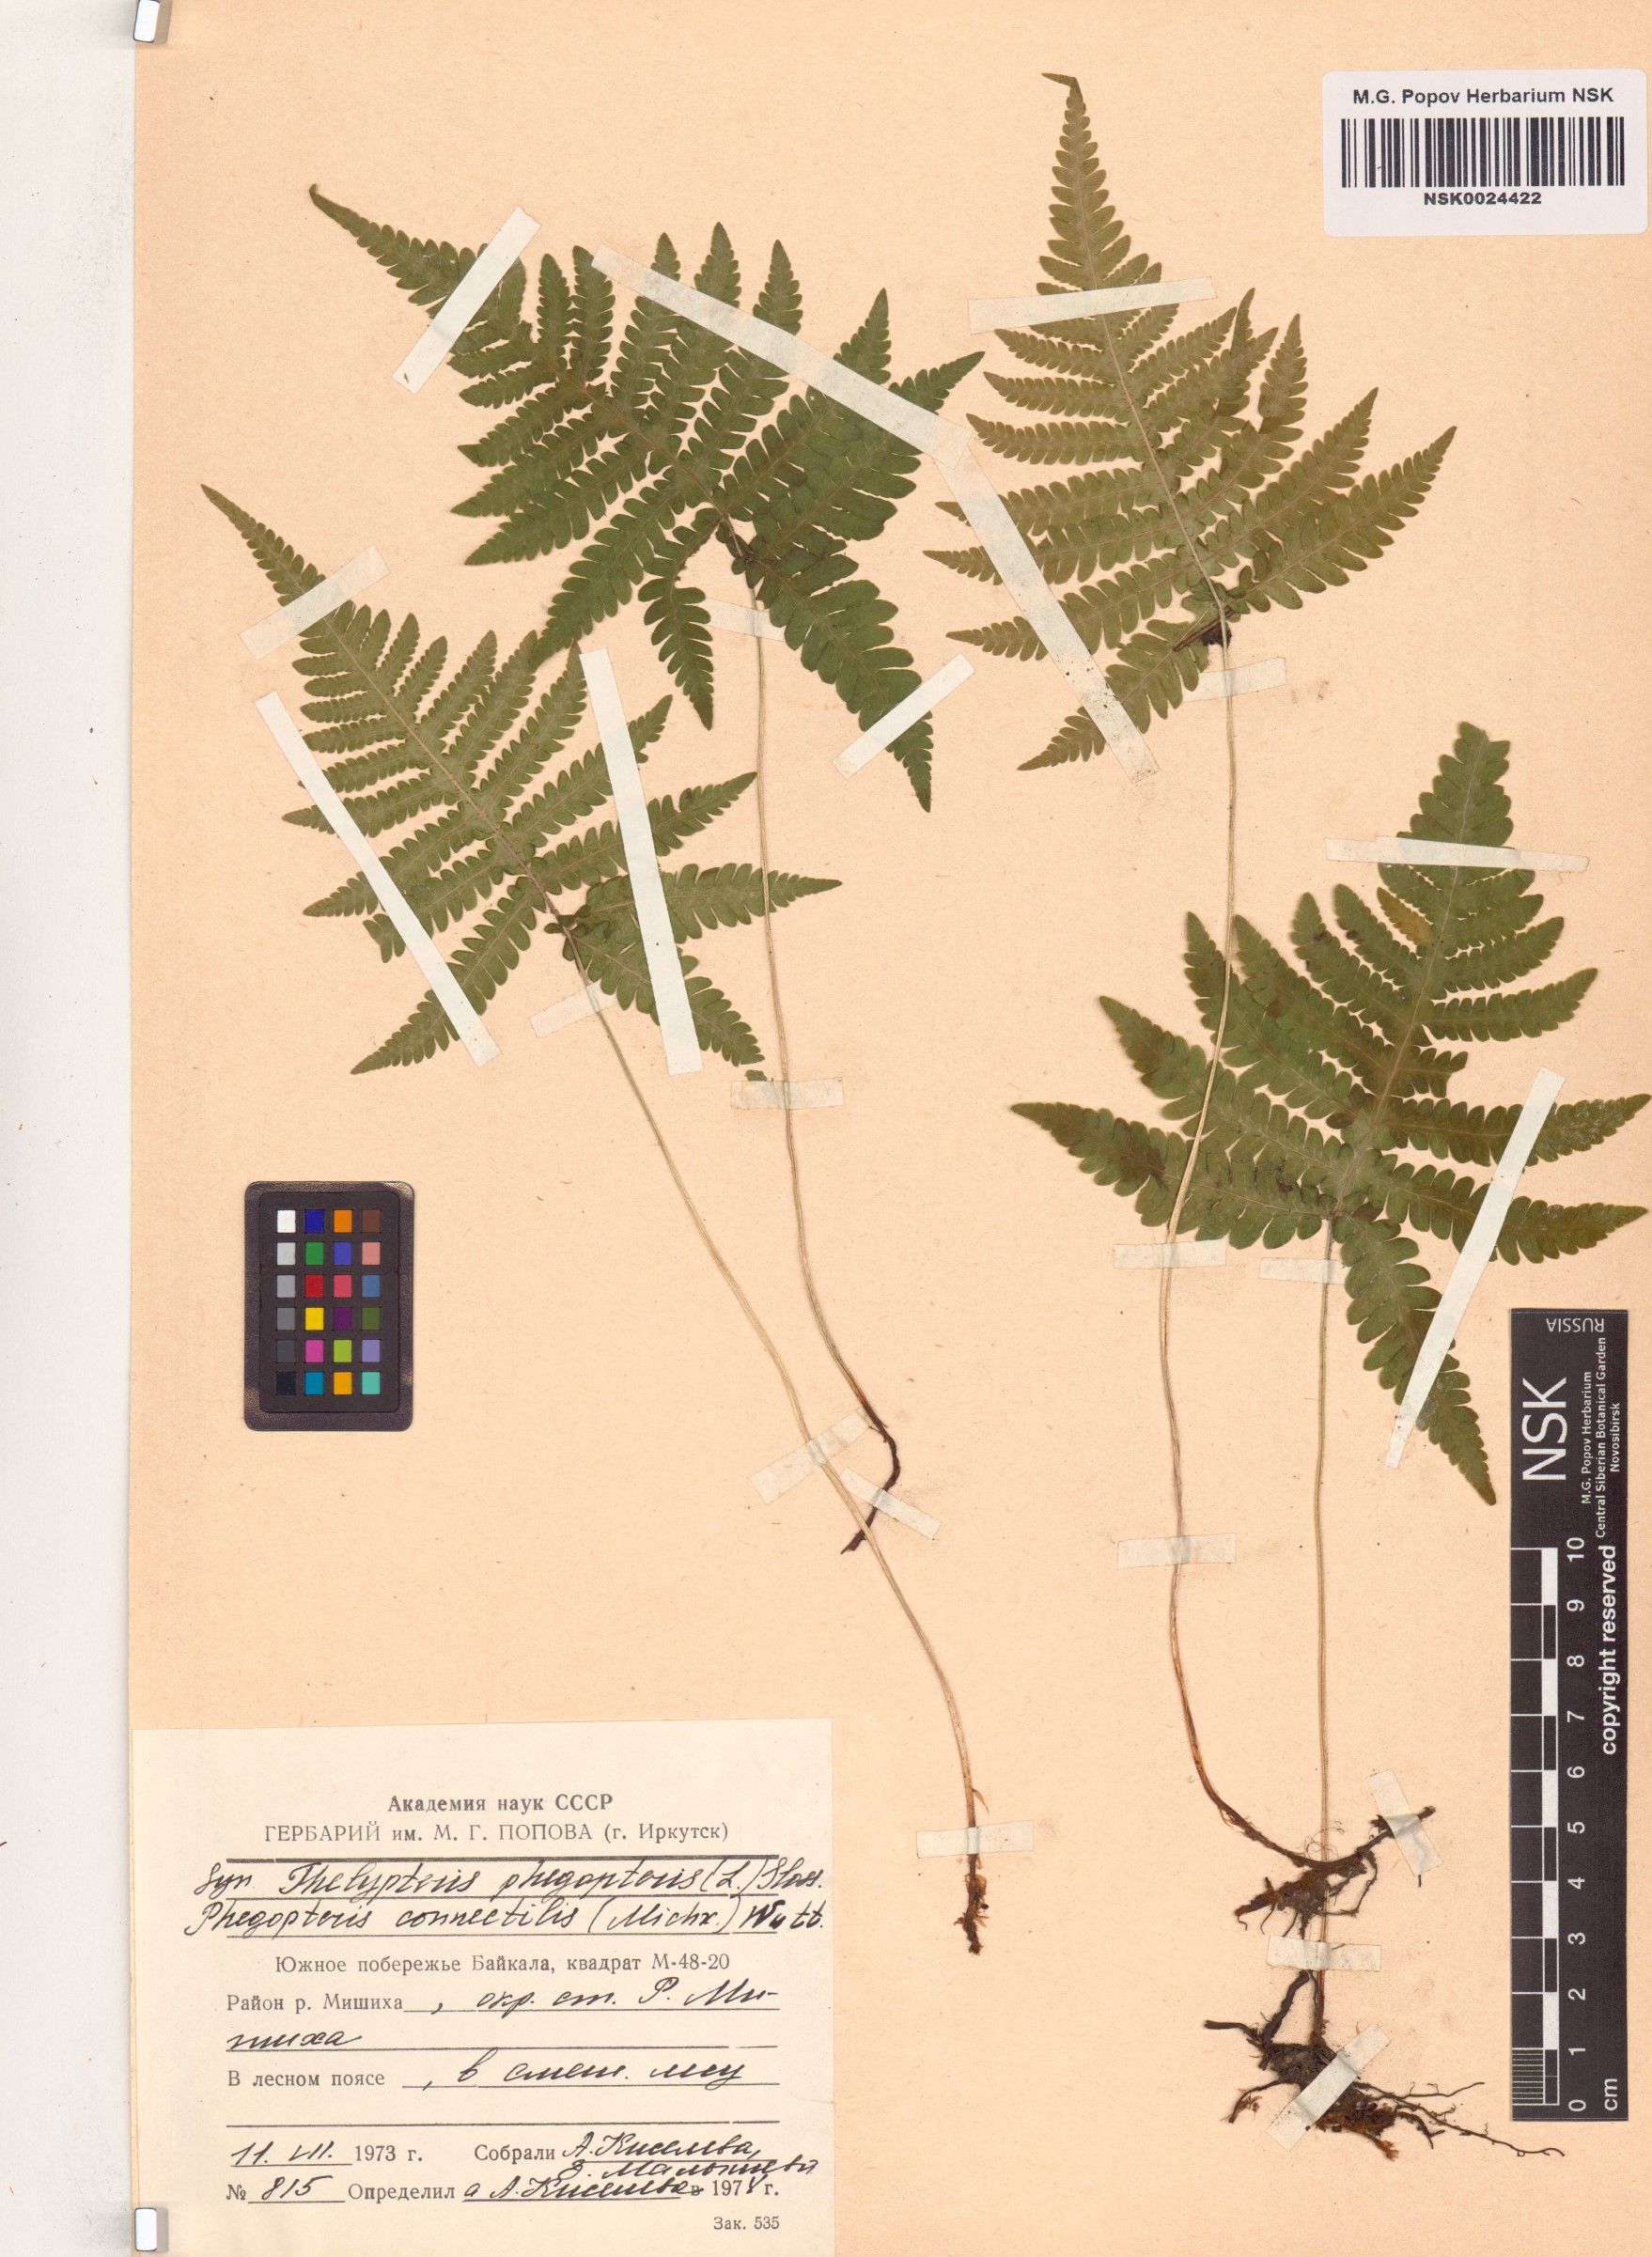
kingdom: Plantae
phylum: Tracheophyta
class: Polypodiopsida
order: Polypodiales
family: Thelypteridaceae
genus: Phegopteris
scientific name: Phegopteris connectilis
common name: Beech fern
